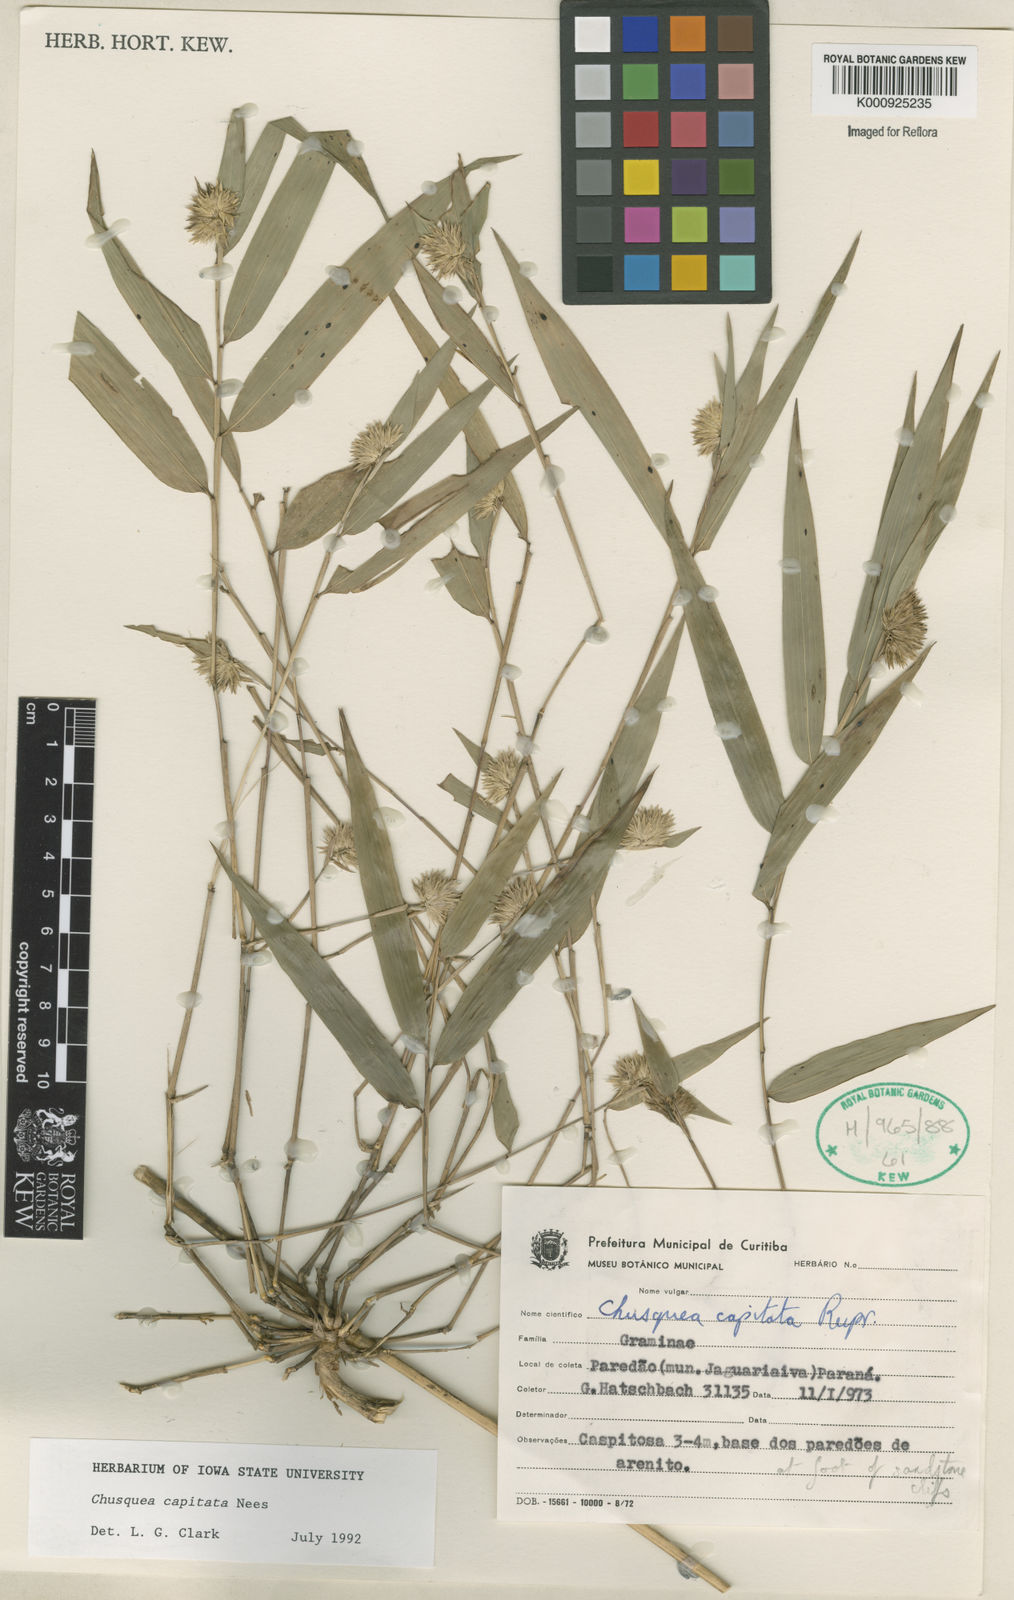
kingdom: Plantae
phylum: Tracheophyta
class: Liliopsida
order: Poales
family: Poaceae
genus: Chusquea
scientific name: Chusquea capitata
